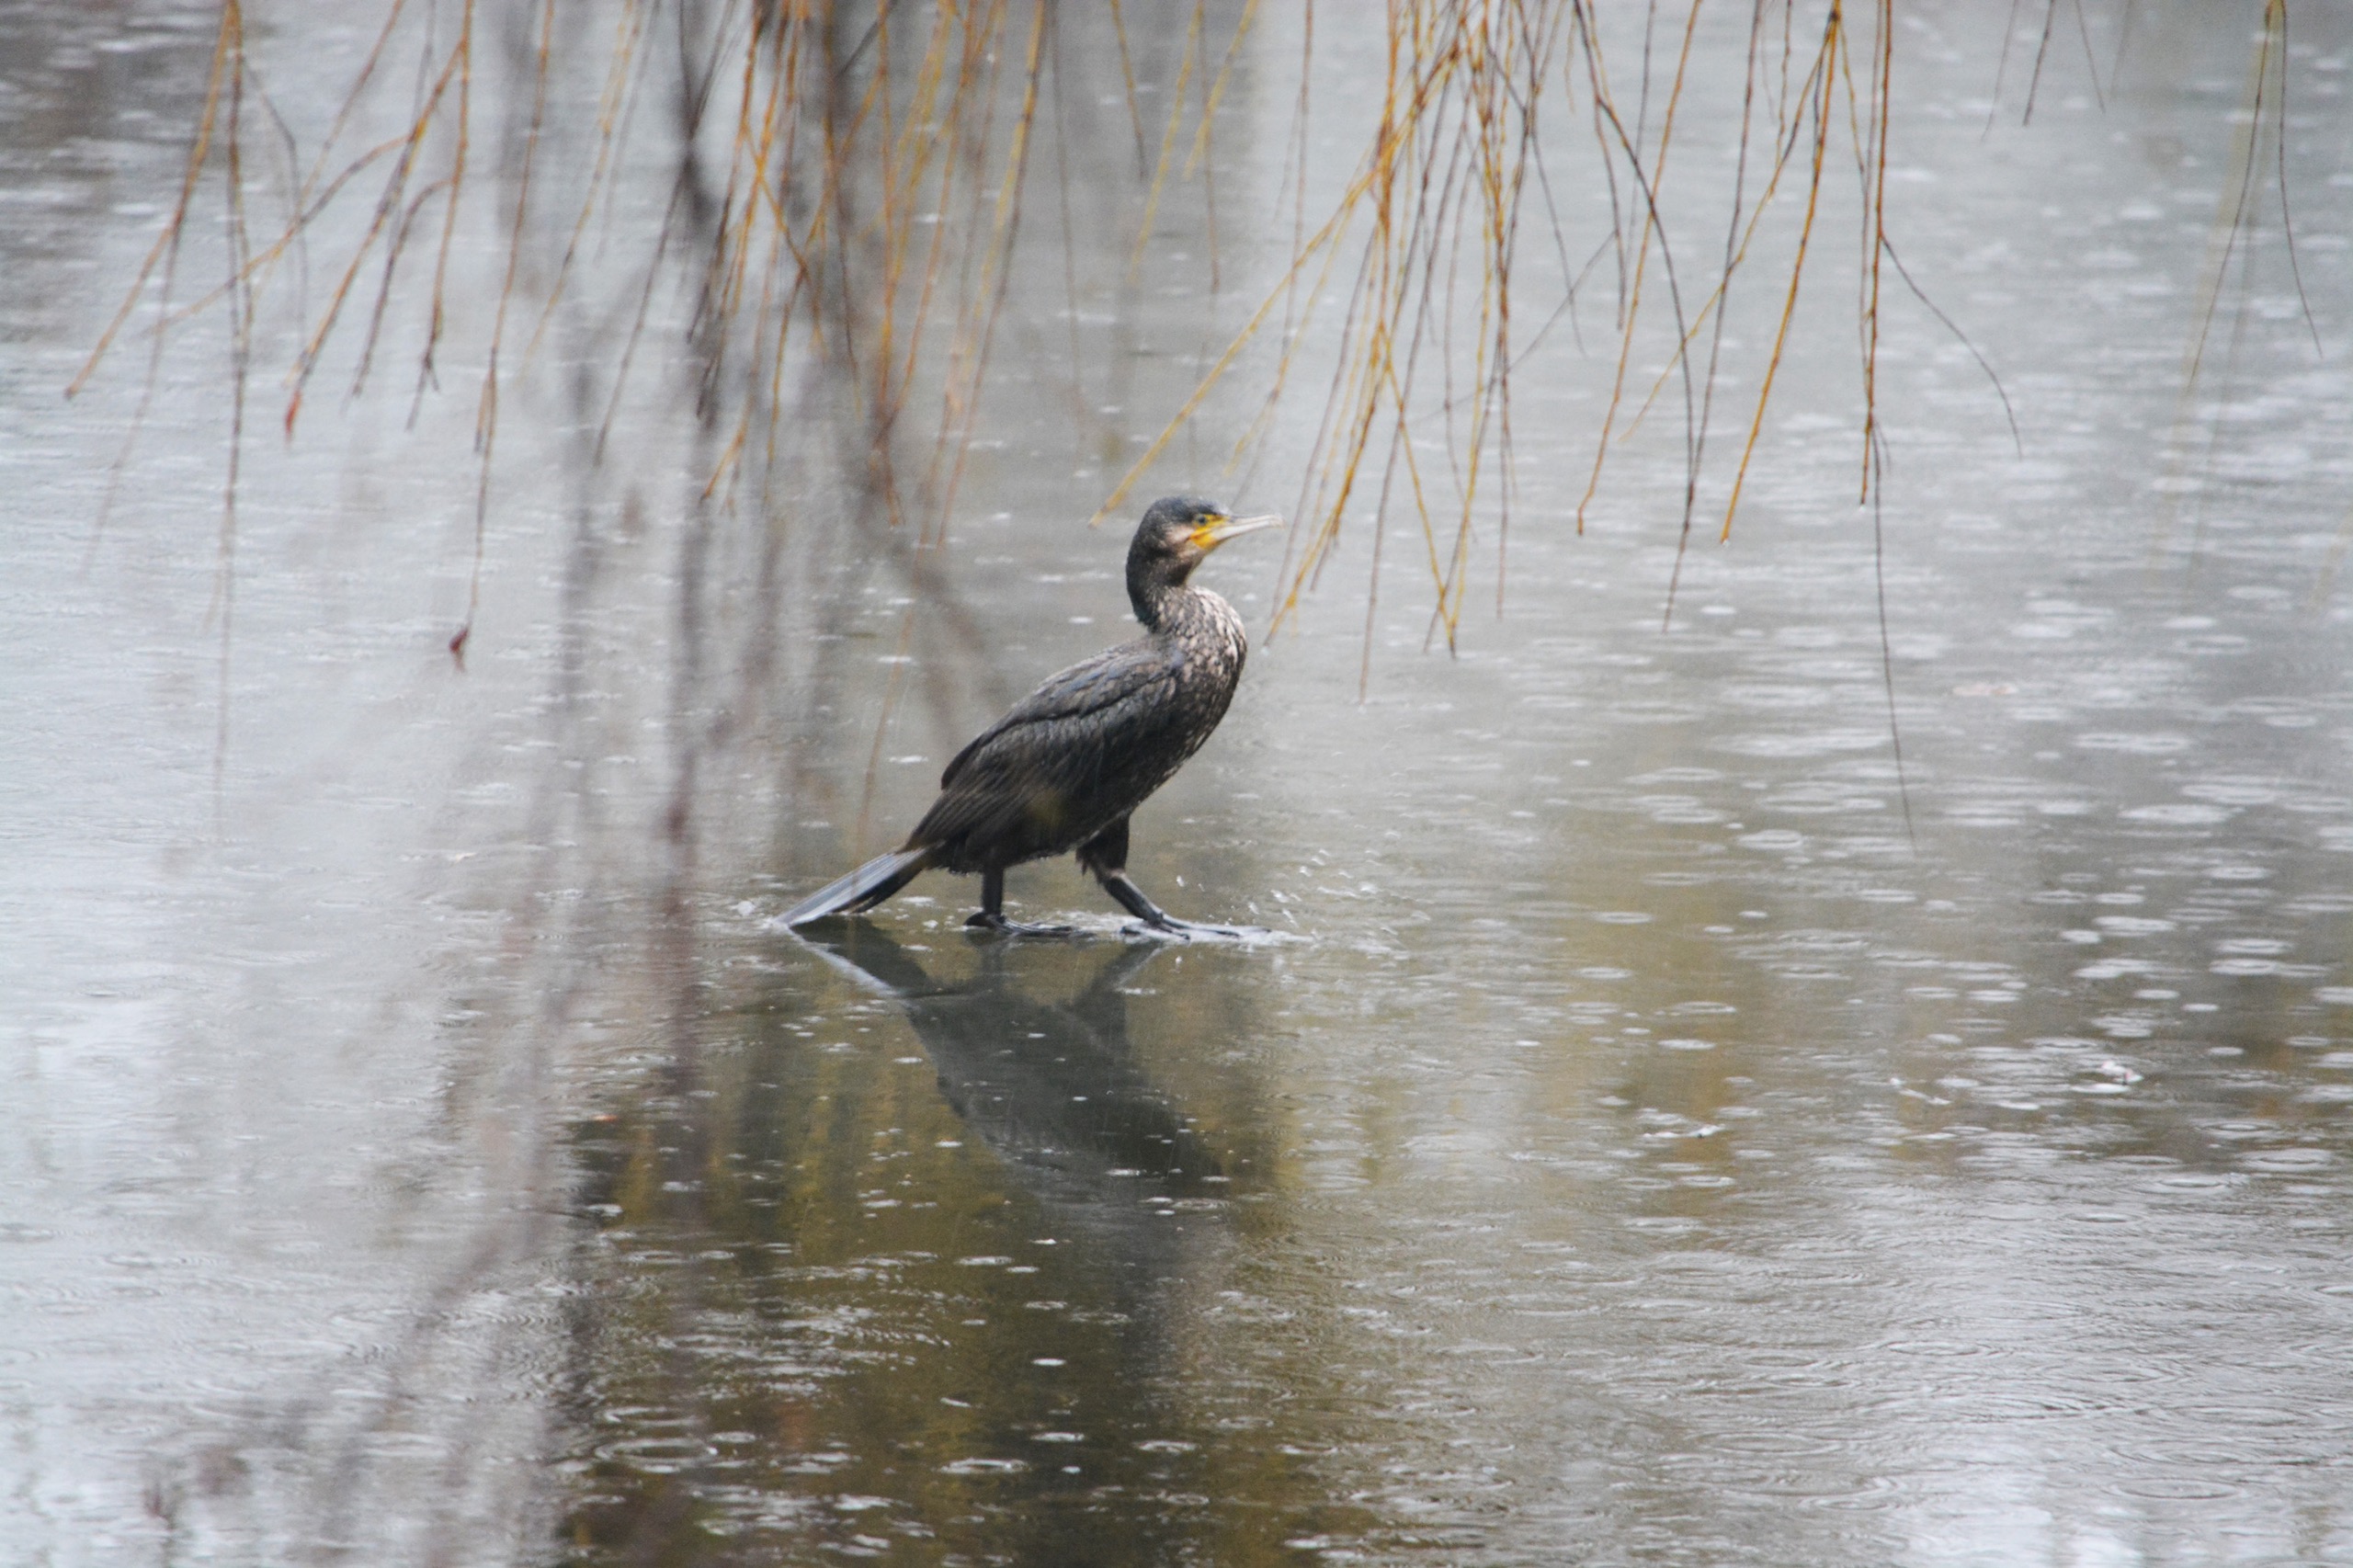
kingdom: Animalia
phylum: Chordata
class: Aves
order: Suliformes
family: Phalacrocoracidae
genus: Phalacrocorax
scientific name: Phalacrocorax carbo
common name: Skarv
